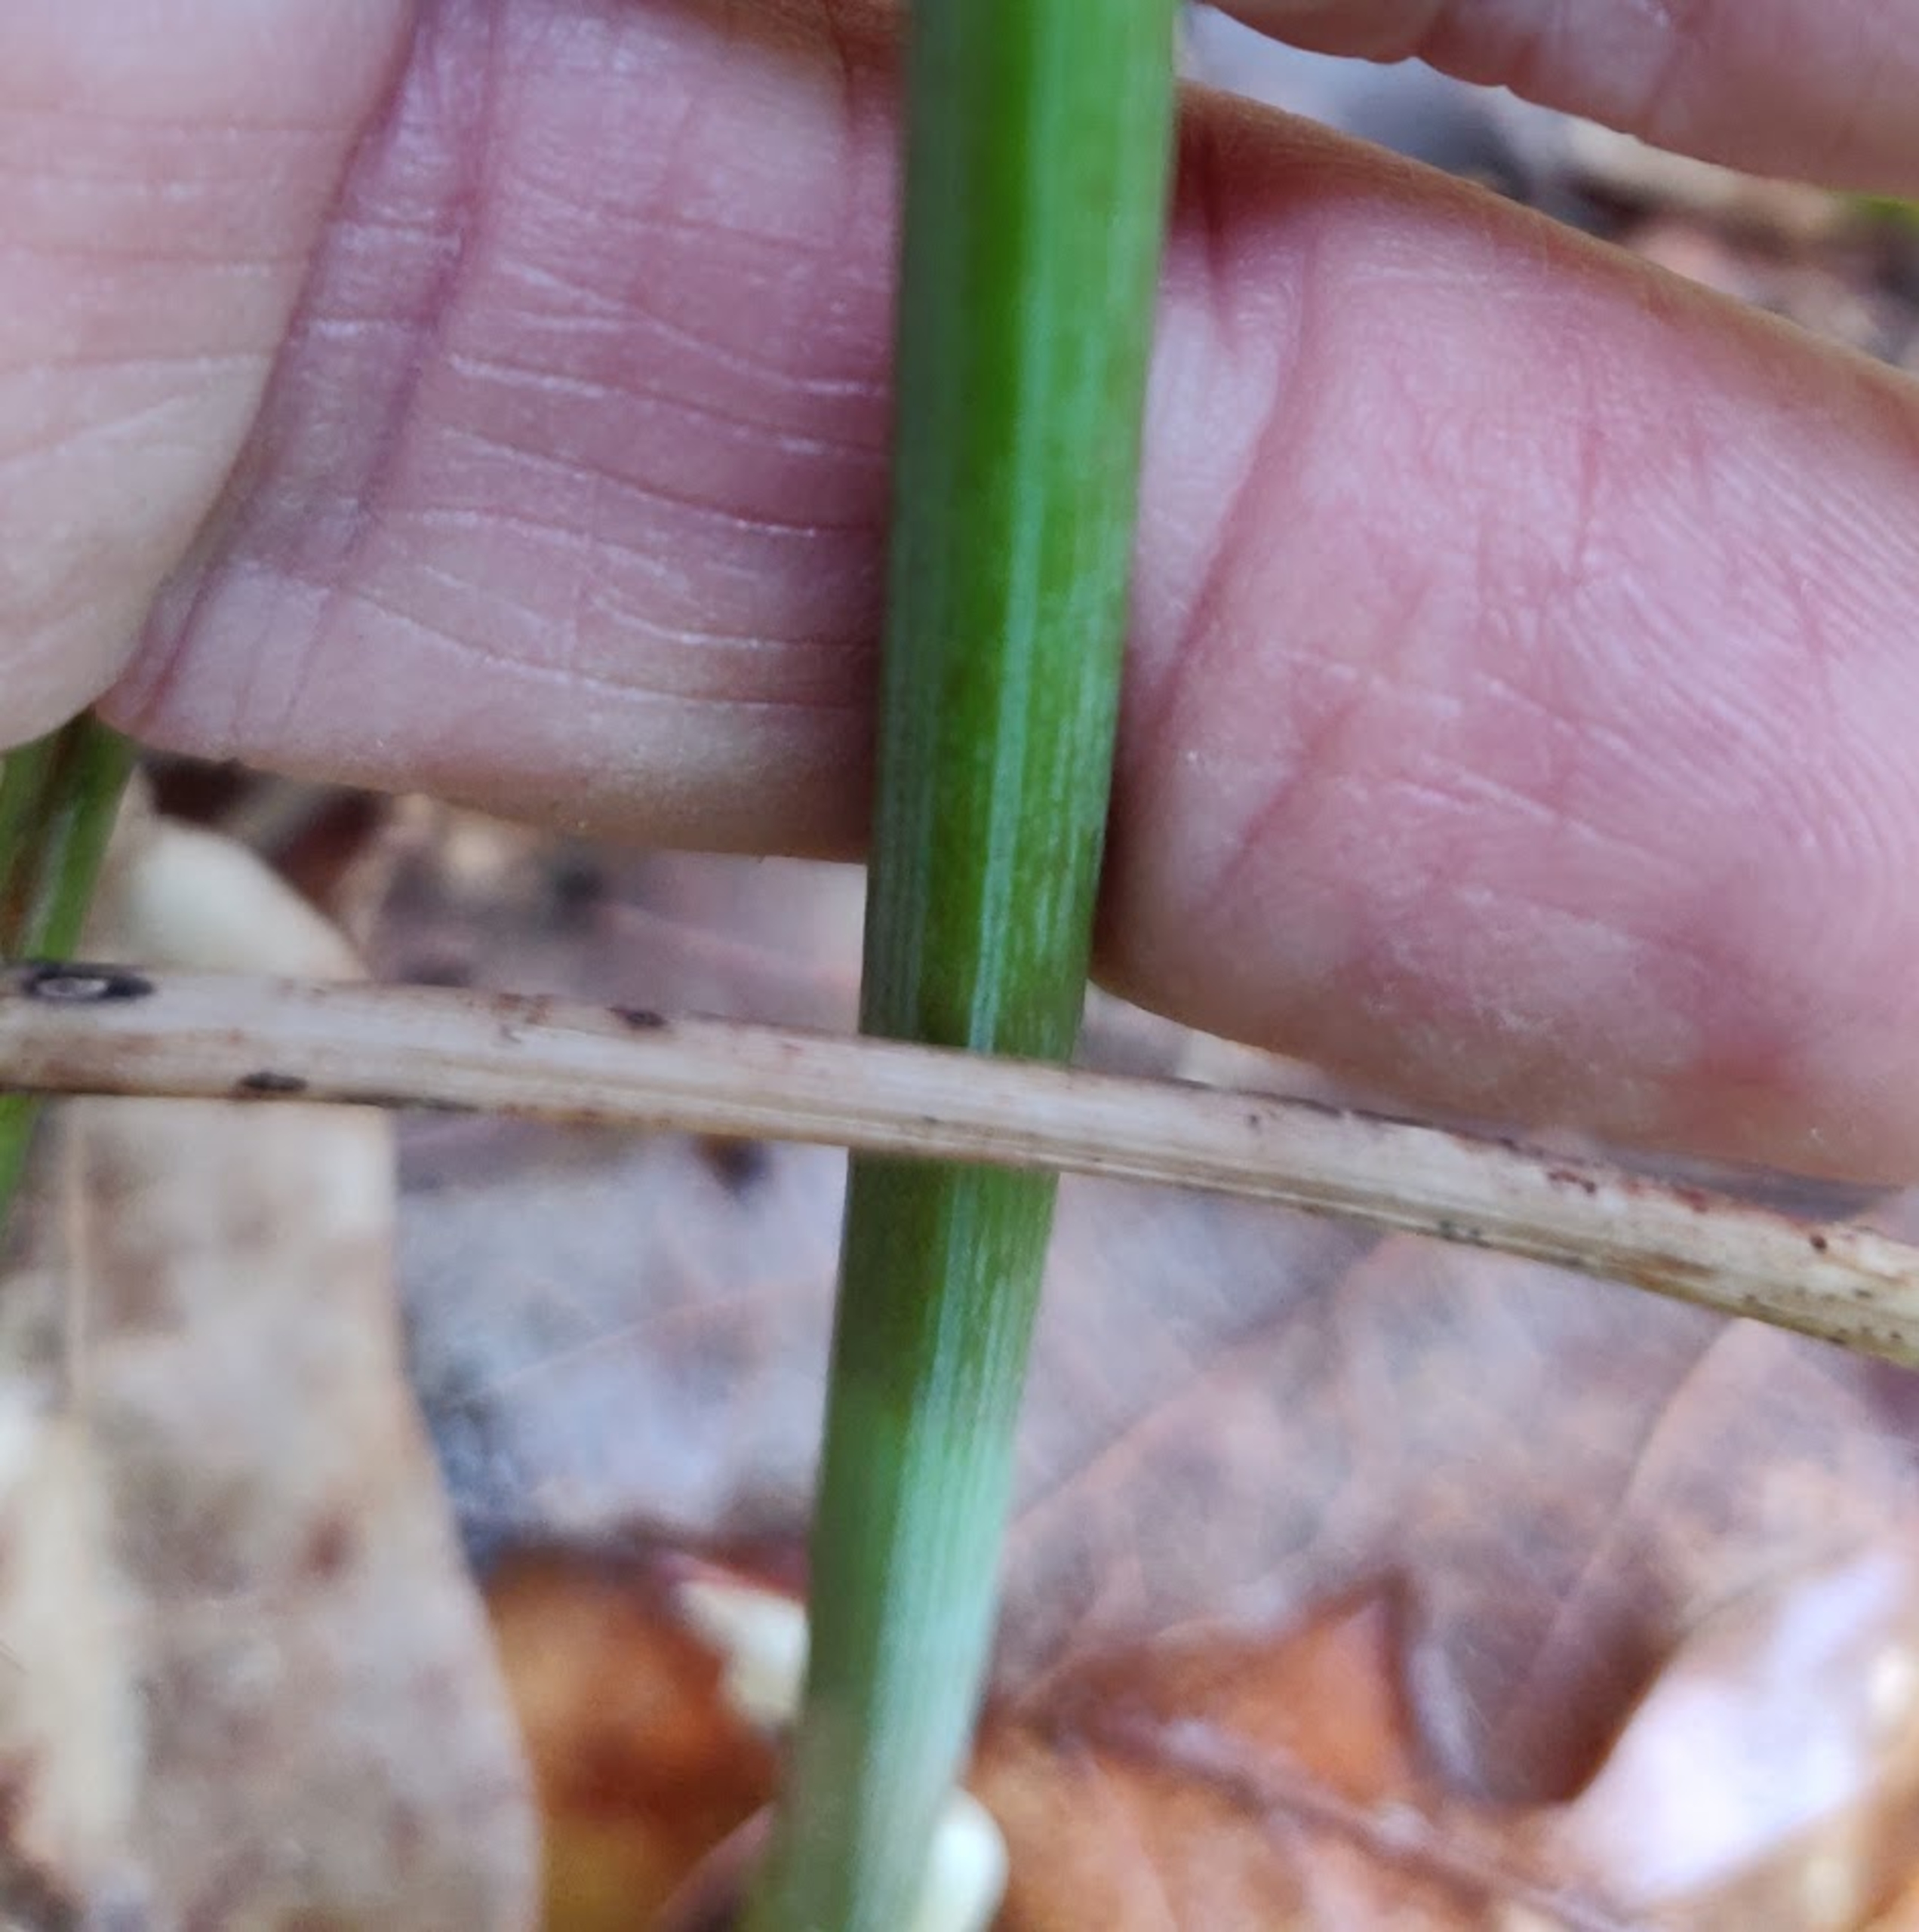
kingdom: Plantae
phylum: Tracheophyta
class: Liliopsida
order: Asparagales
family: Asparagaceae
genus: Polygonatum
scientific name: Polygonatum
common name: Hybrid-konval
